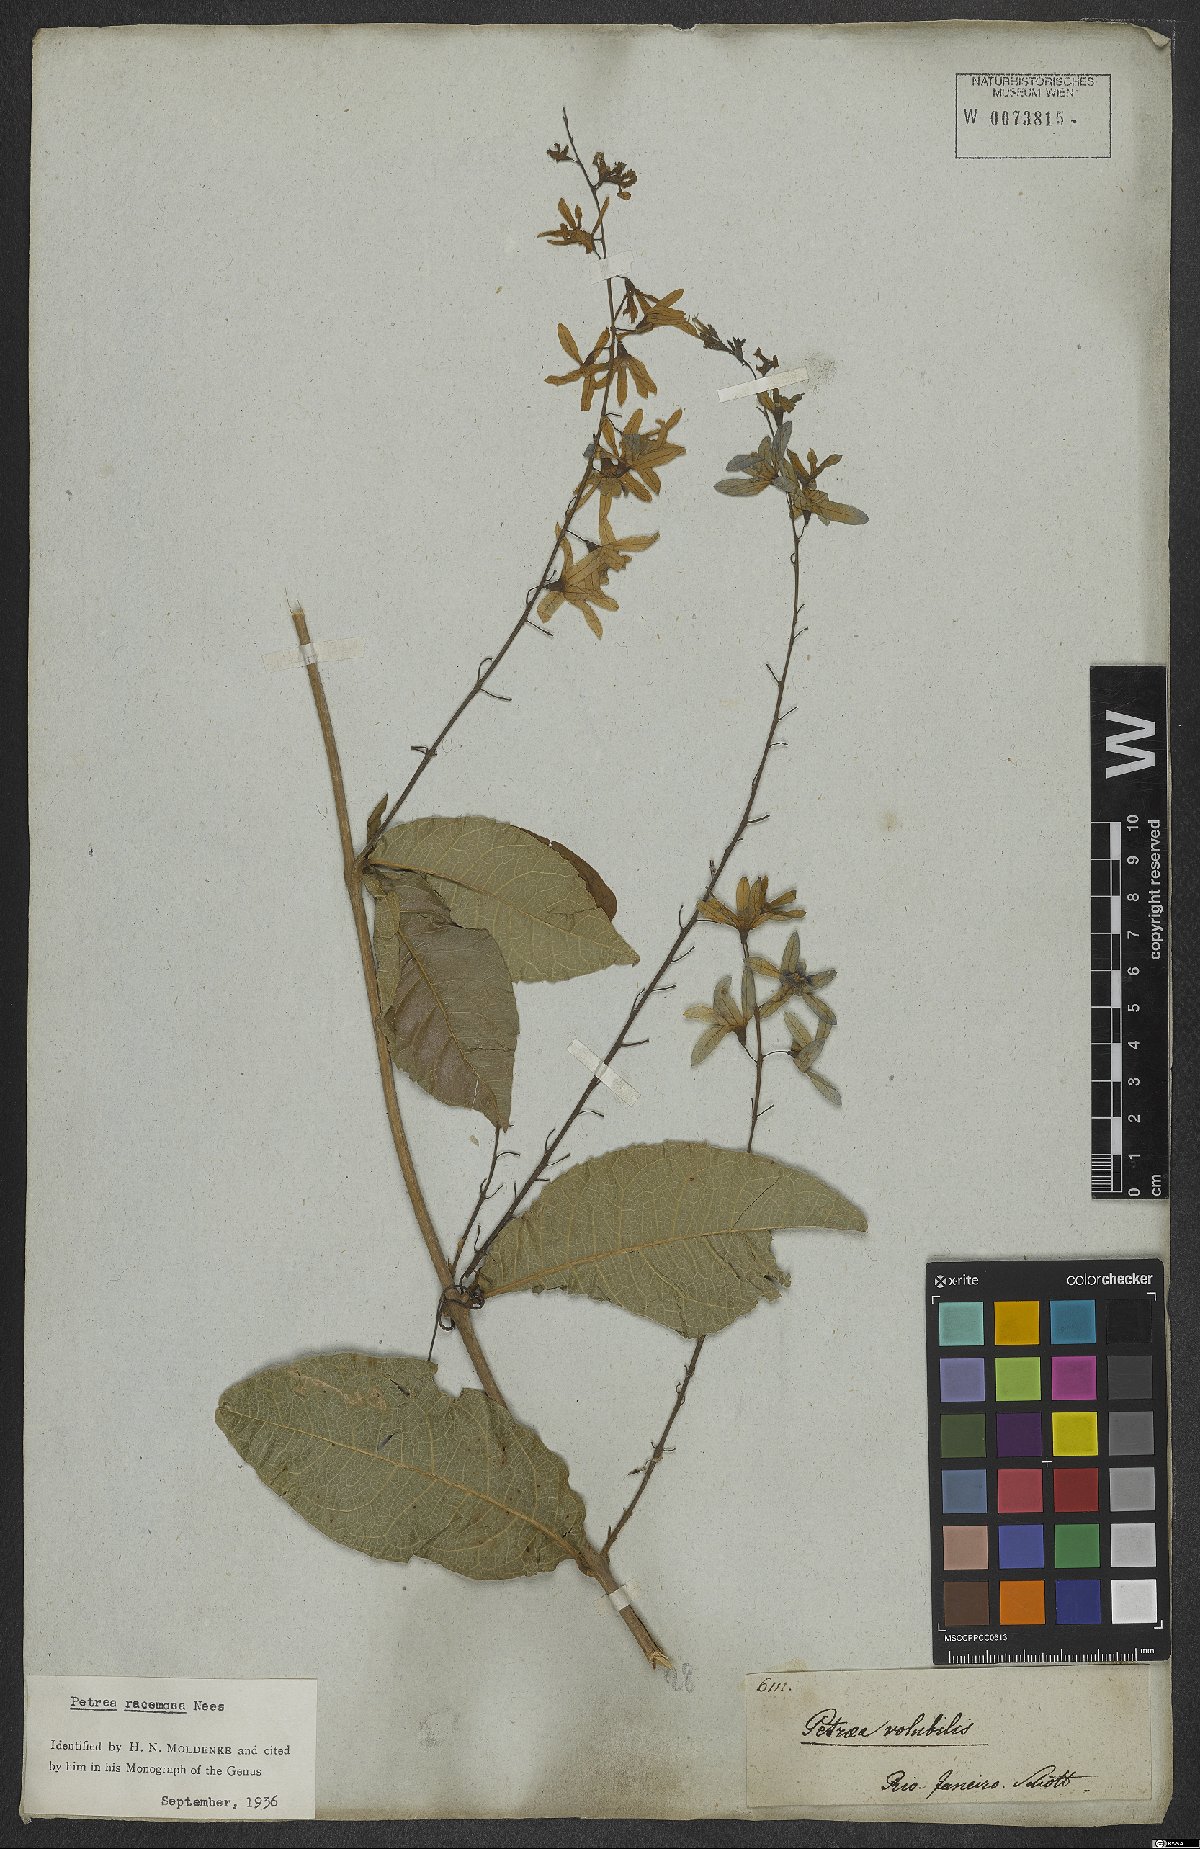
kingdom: Plantae
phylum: Tracheophyta
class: Magnoliopsida
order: Lamiales
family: Verbenaceae
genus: Petrea
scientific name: Petrea volubilis
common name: Queen's-wreath
